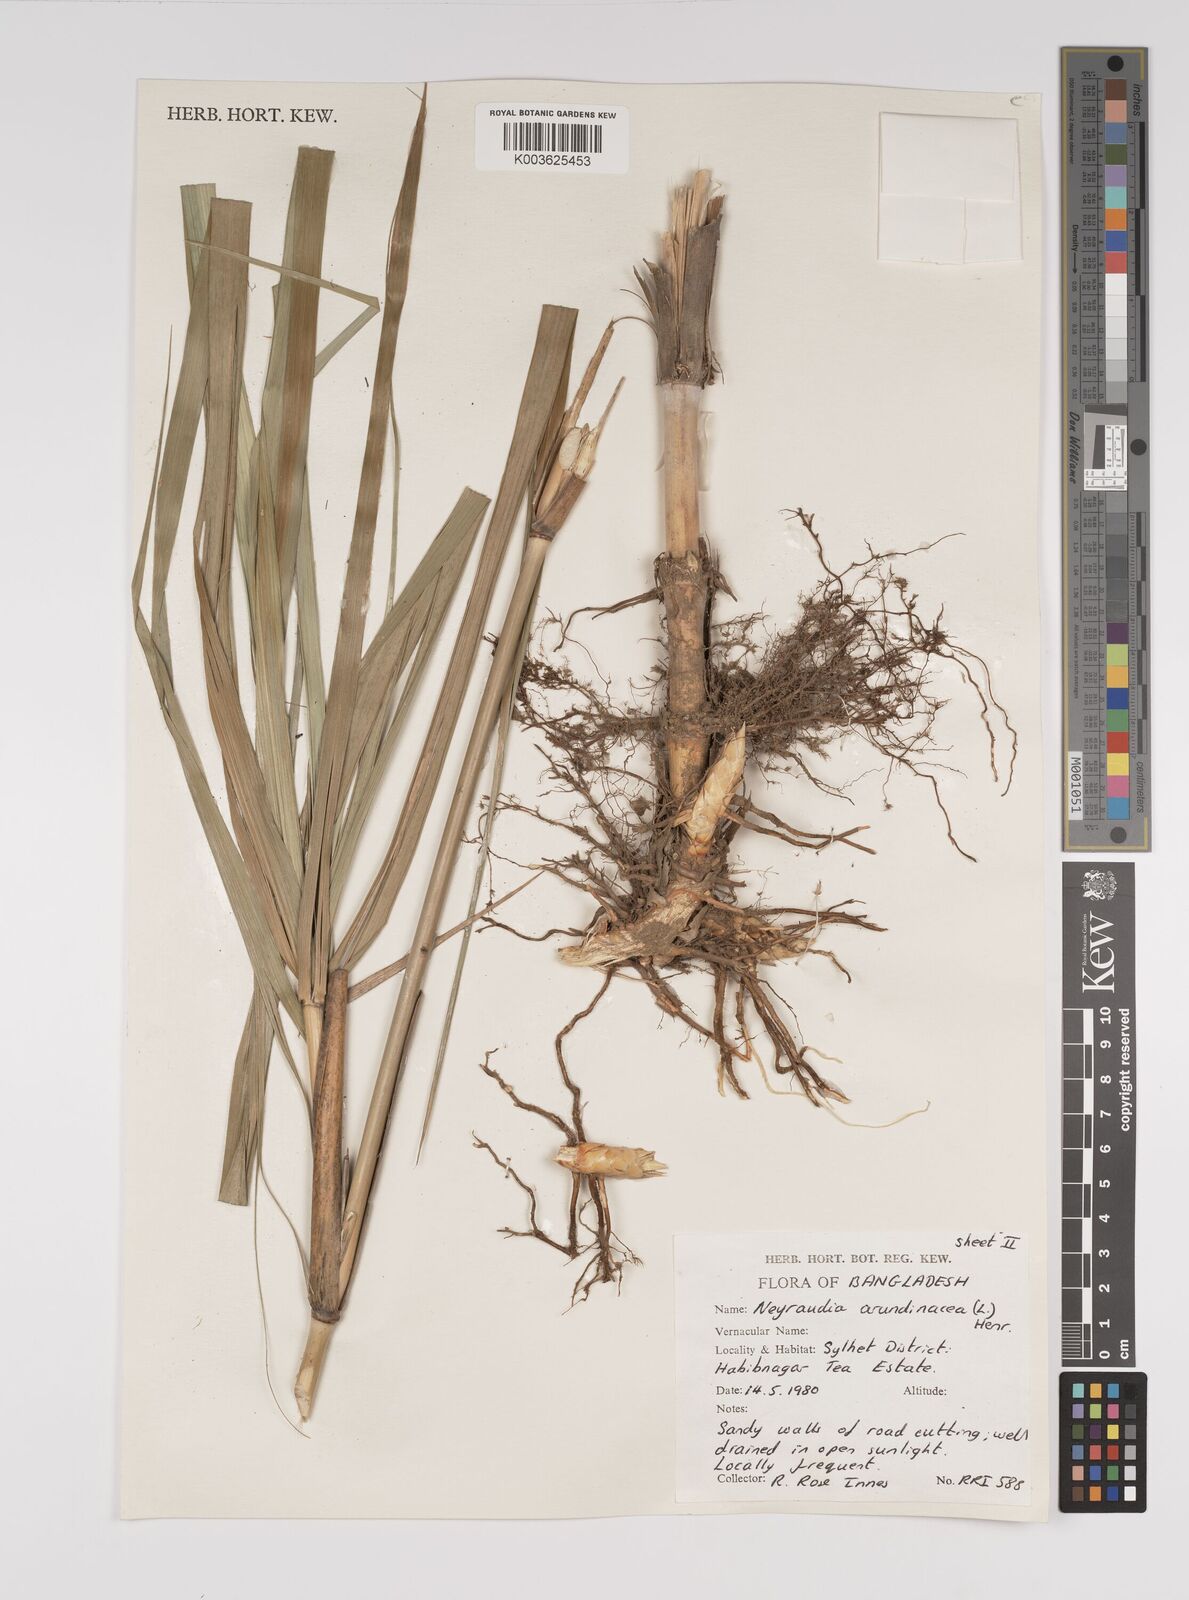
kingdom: Plantae
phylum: Tracheophyta
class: Liliopsida
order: Poales
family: Poaceae
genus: Neyraudia
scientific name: Neyraudia reynaudiana
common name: Silkreed
